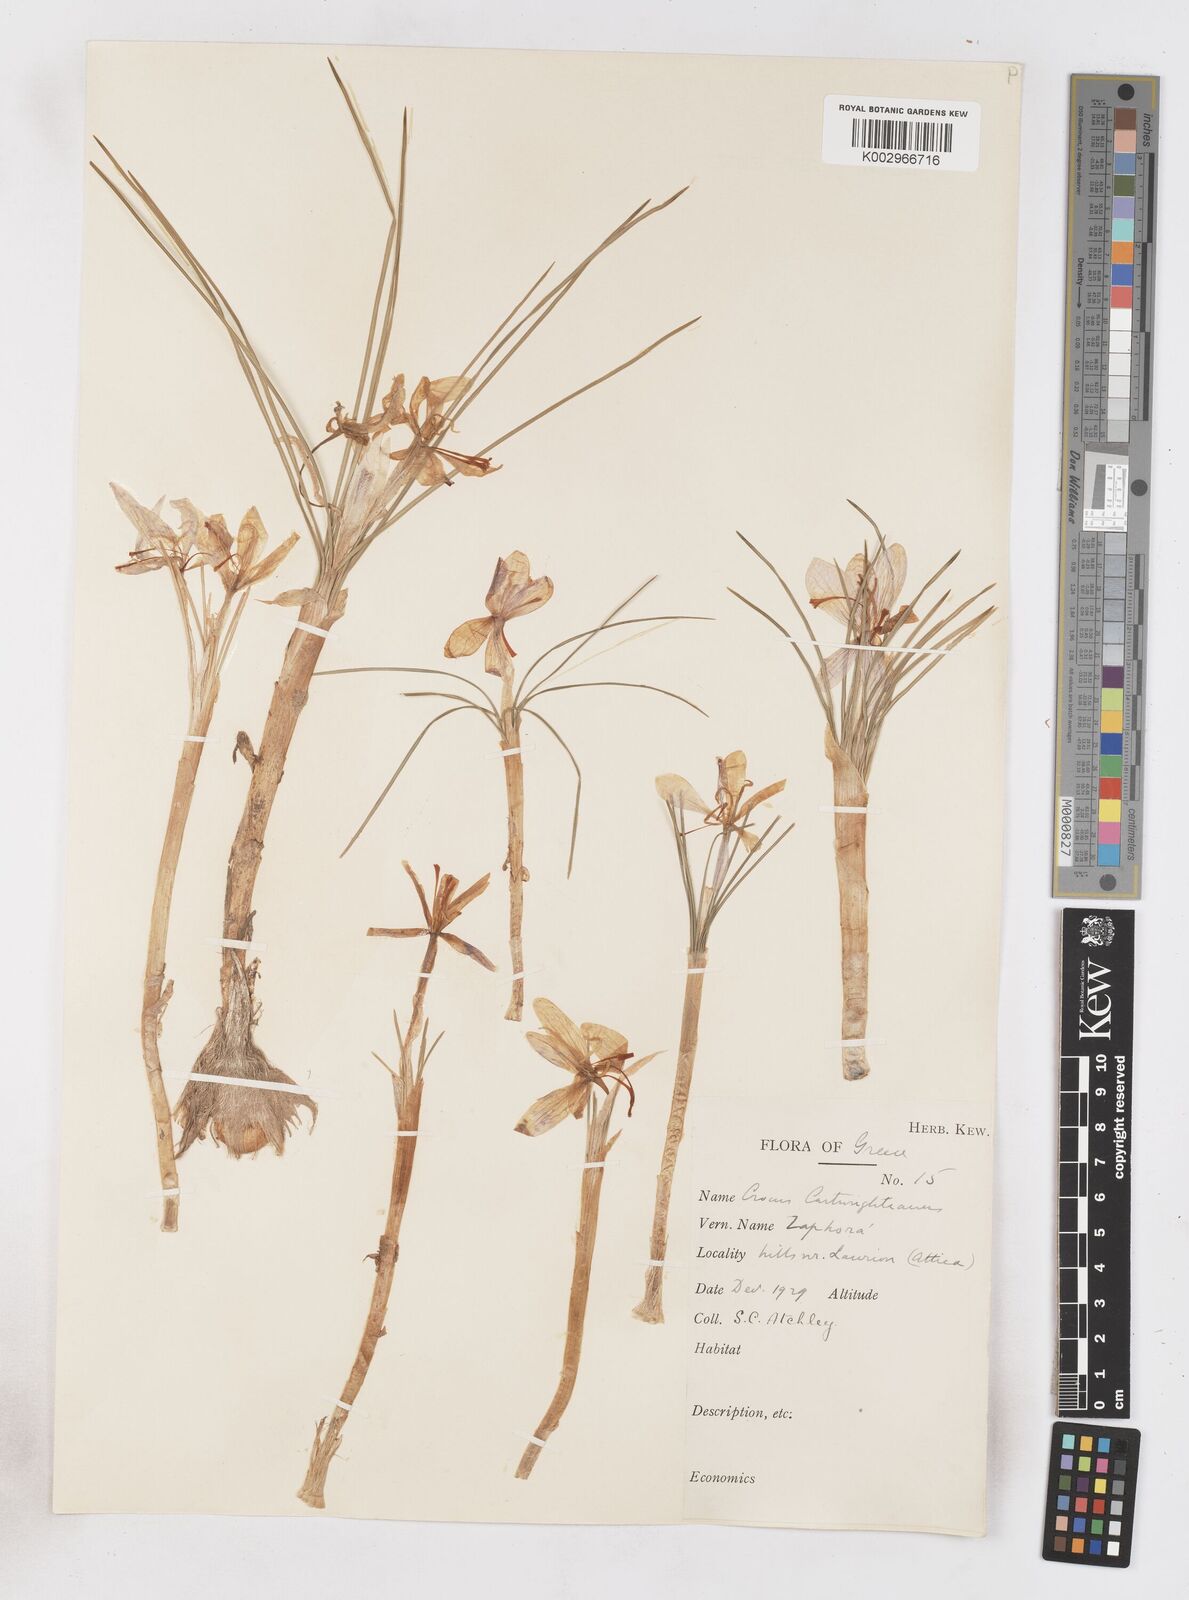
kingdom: Plantae
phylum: Tracheophyta
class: Liliopsida
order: Asparagales
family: Iridaceae
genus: Crocus
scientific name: Crocus cartwrightianus
